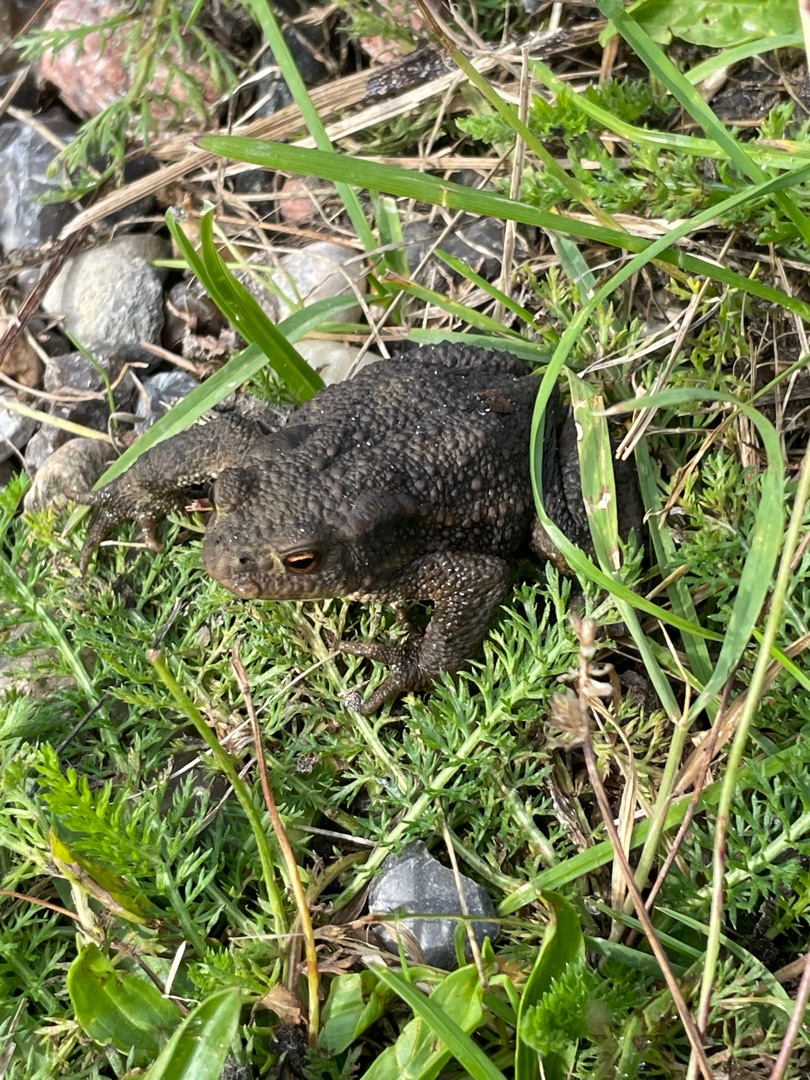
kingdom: Animalia
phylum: Chordata
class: Amphibia
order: Anura
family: Bufonidae
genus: Bufo
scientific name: Bufo bufo
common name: Skrubtudse
